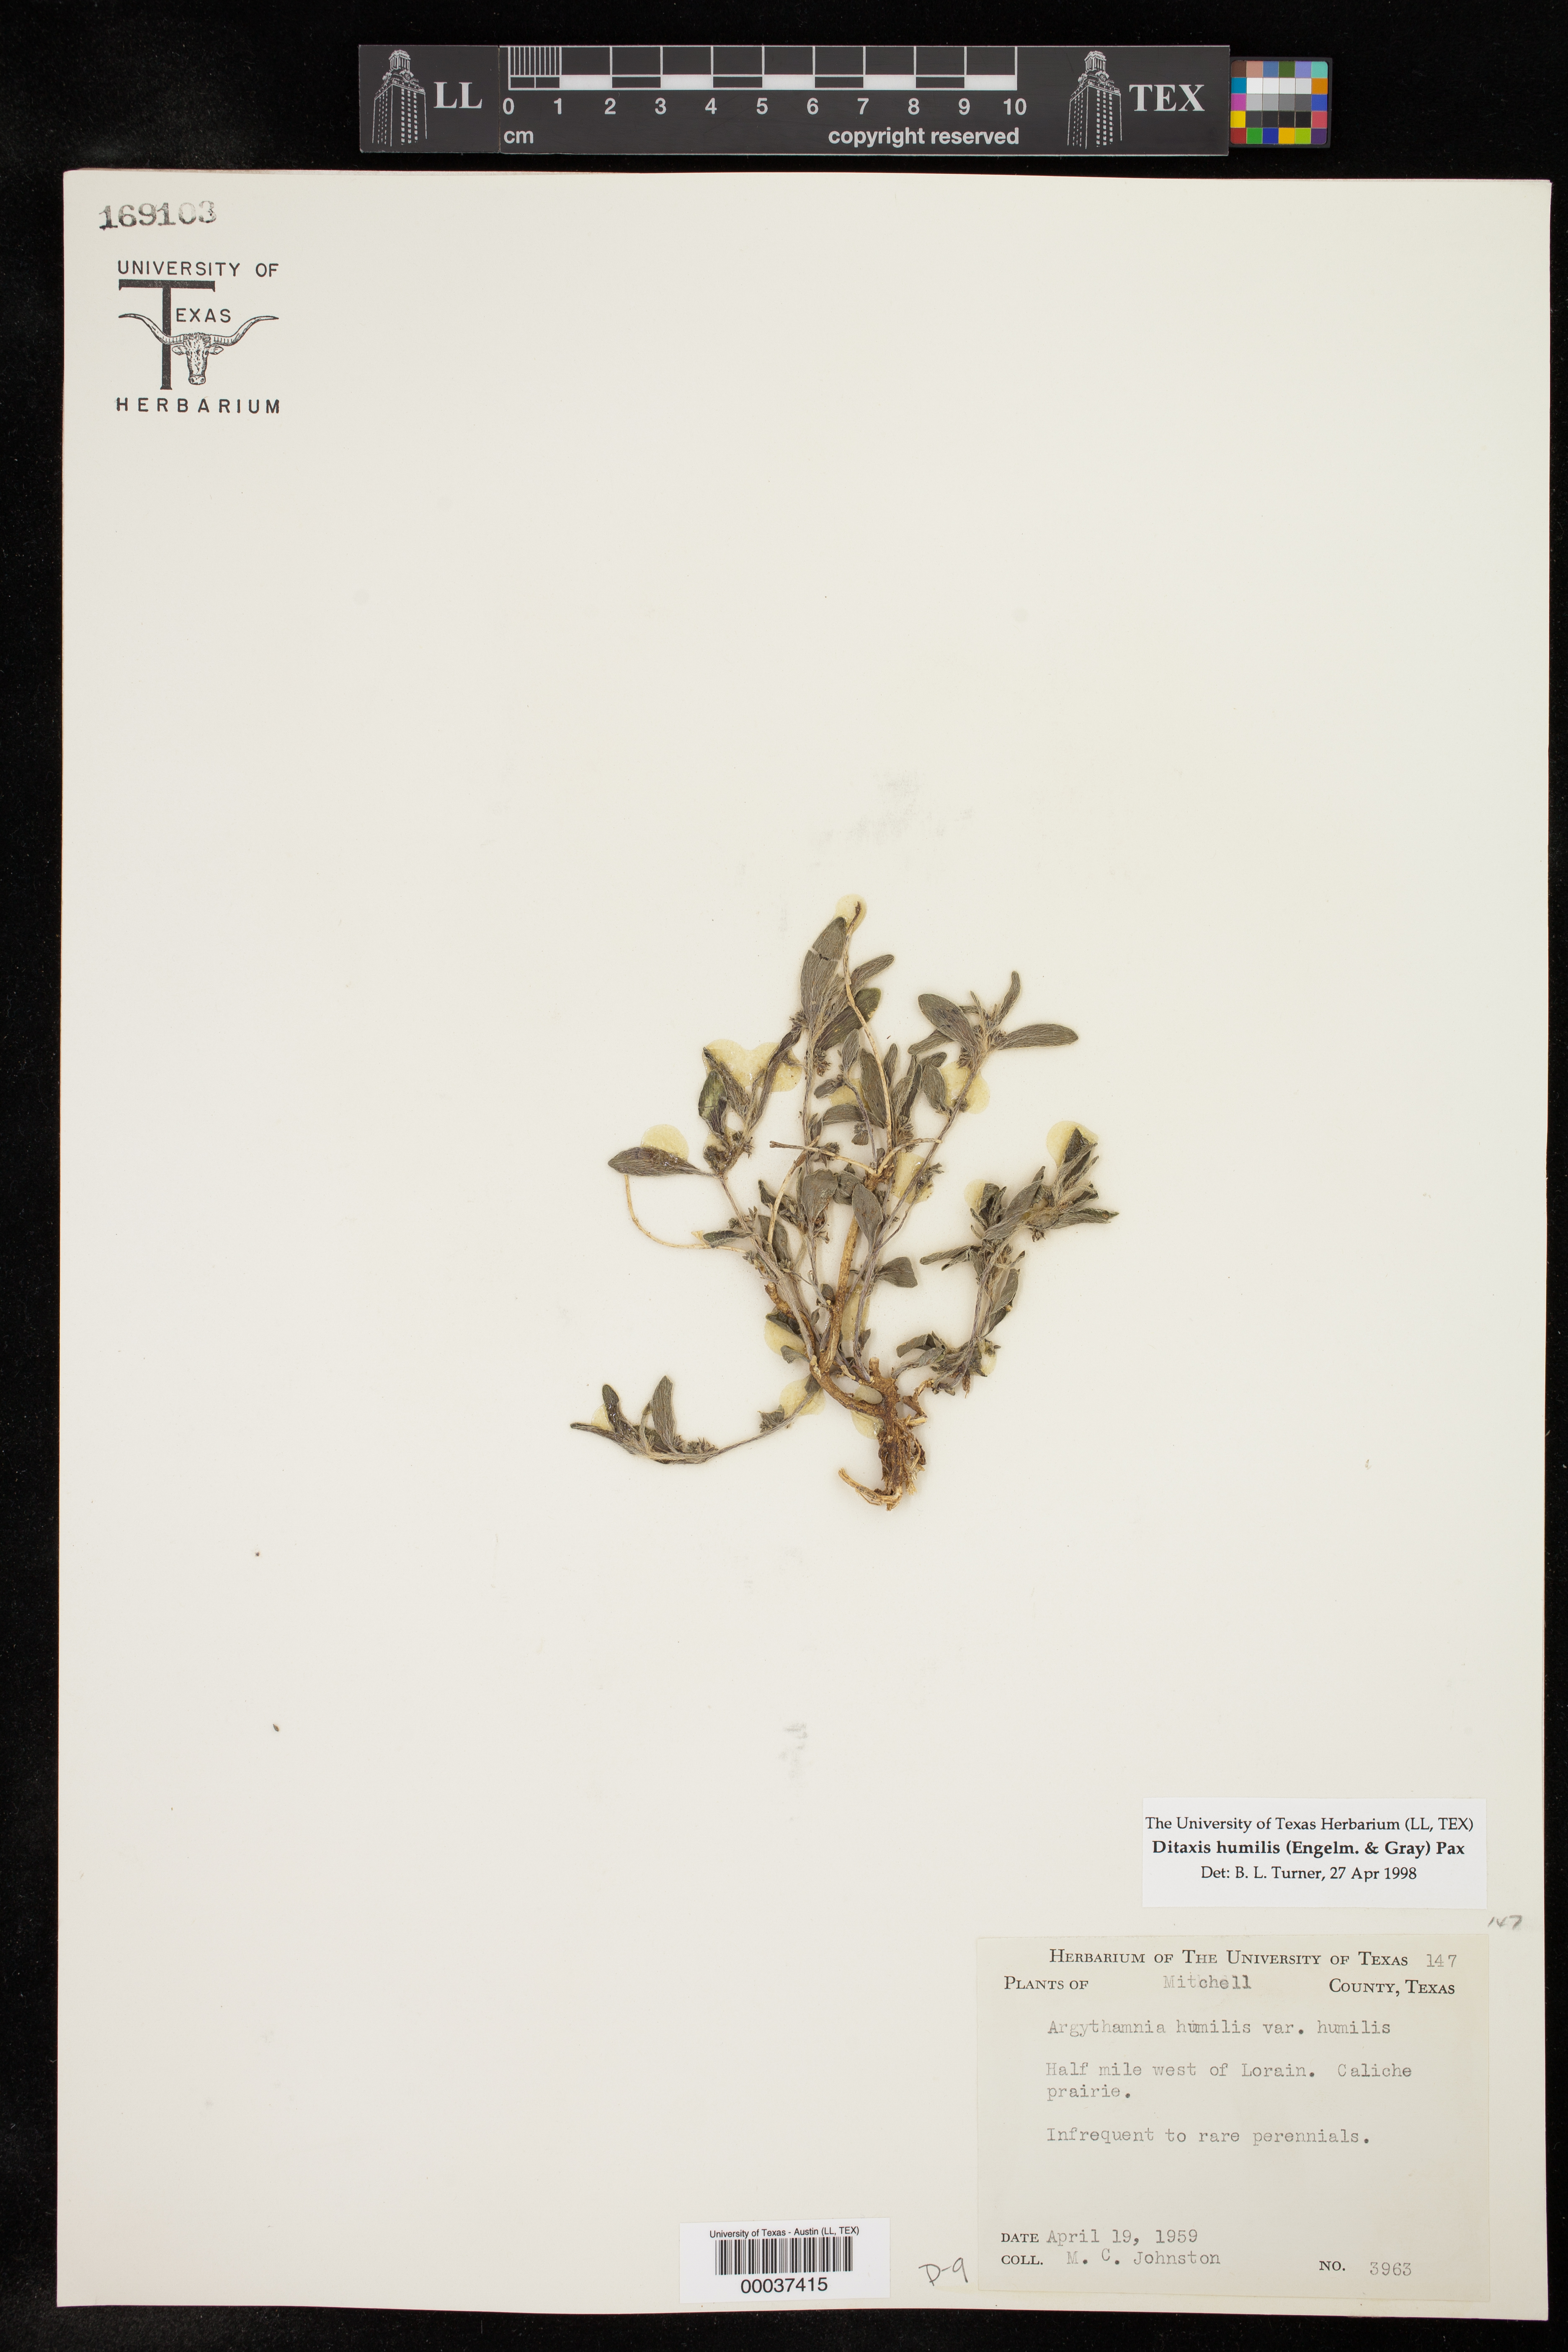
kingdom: Plantae
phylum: Tracheophyta
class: Magnoliopsida
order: Malpighiales
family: Euphorbiaceae
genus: Ditaxis
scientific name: Ditaxis humilis
